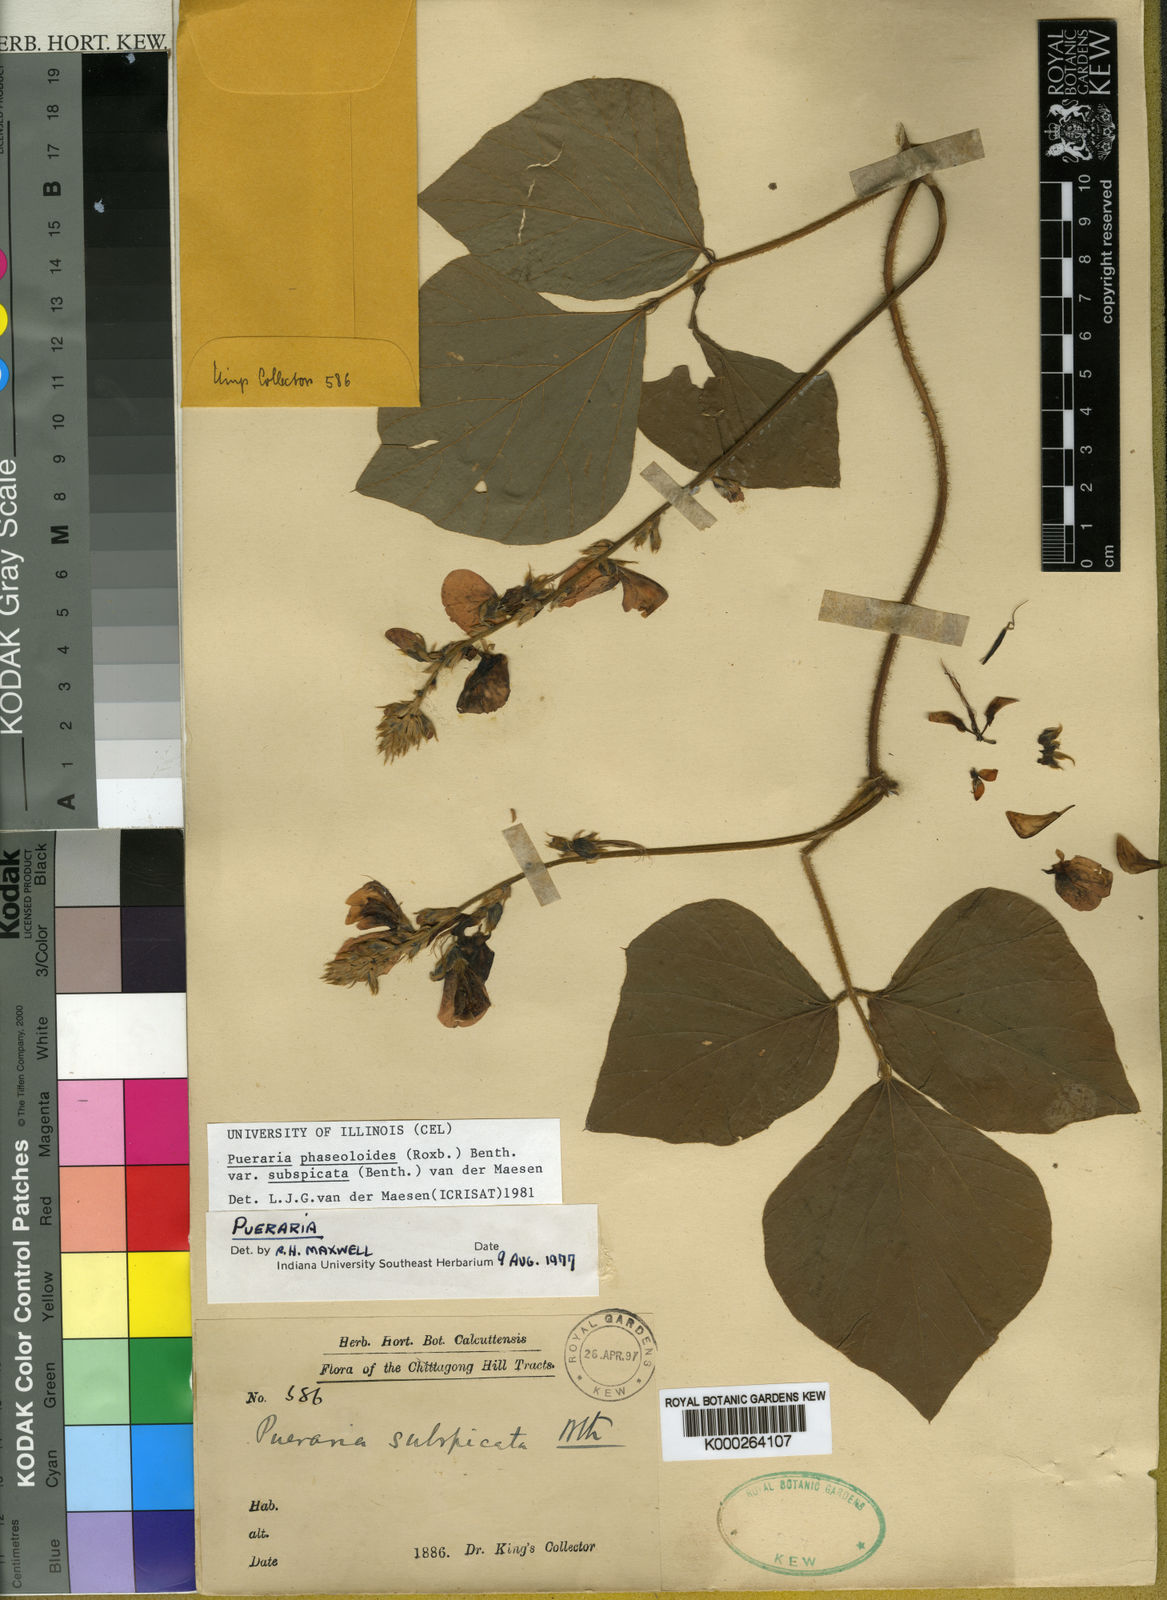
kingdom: Plantae
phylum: Tracheophyta
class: Magnoliopsida
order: Fabales
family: Fabaceae
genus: Neustanthus
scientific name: Neustanthus phaseoloides
